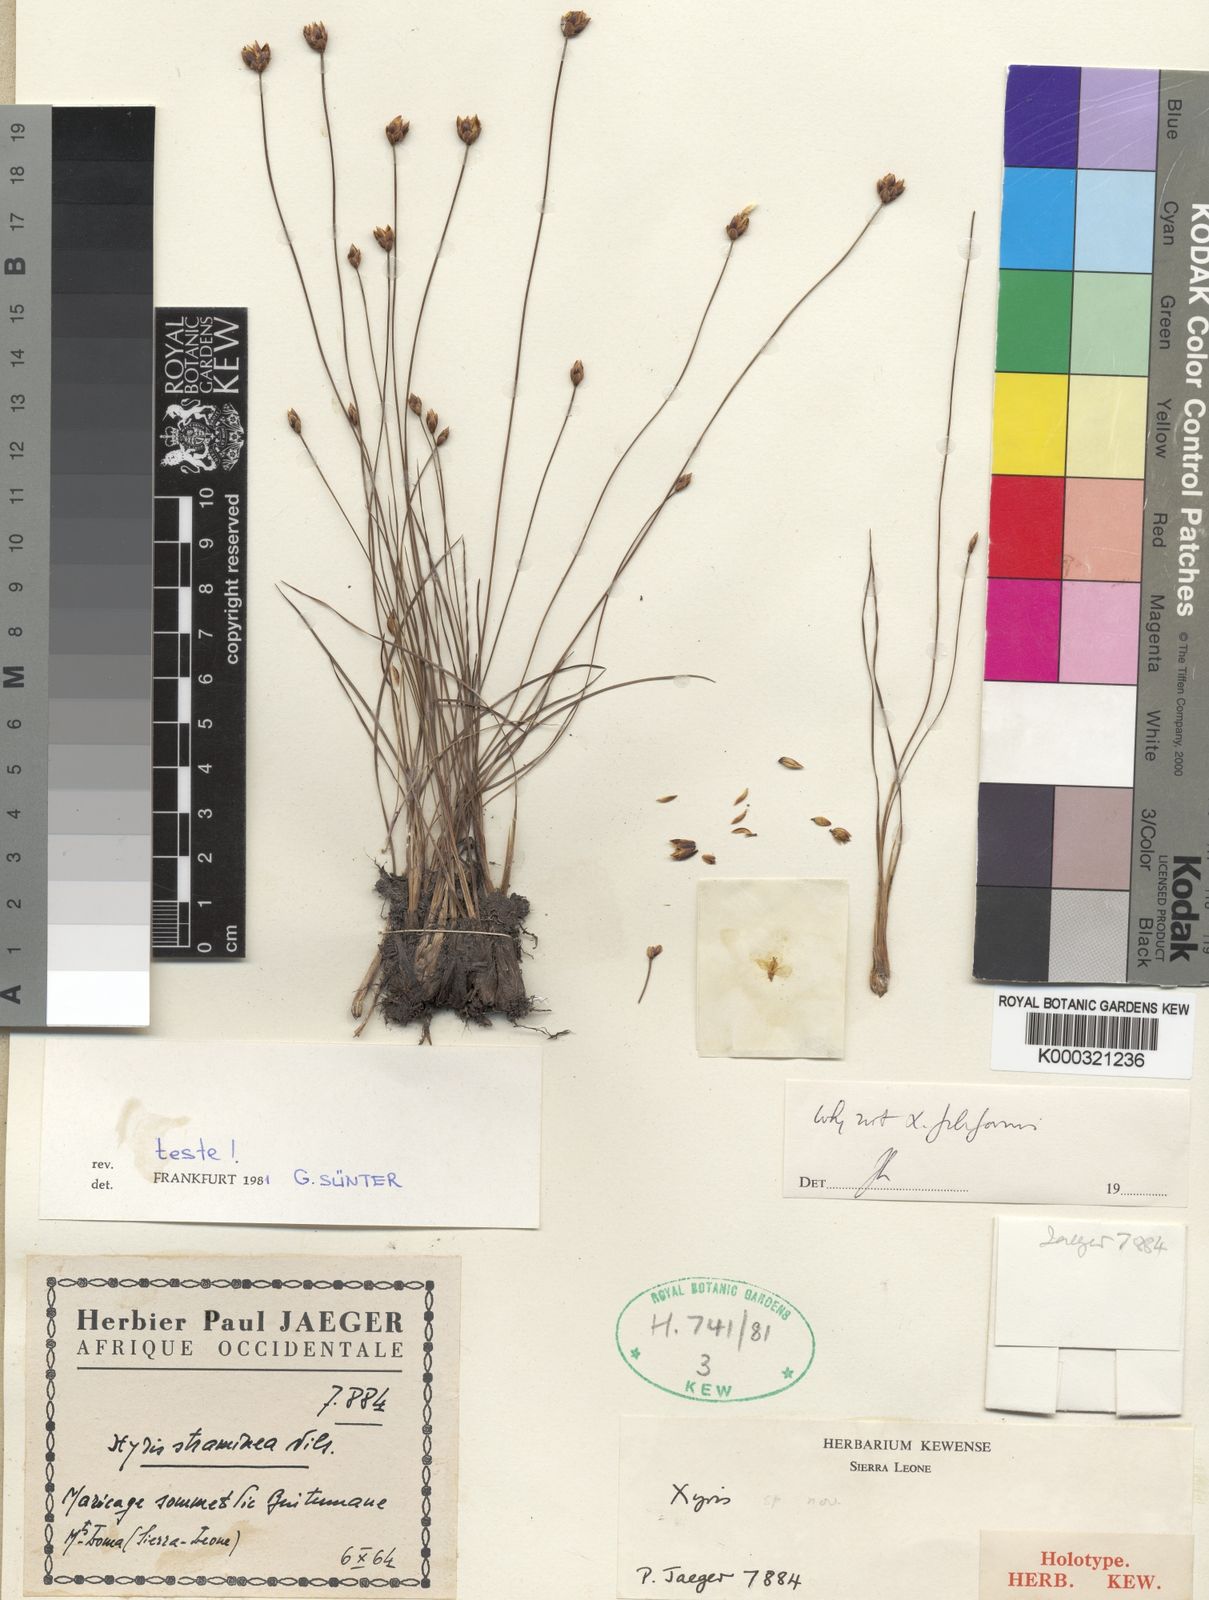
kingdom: Plantae
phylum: Tracheophyta
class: Liliopsida
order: Poales
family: Xyridaceae
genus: Xyris
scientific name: Xyris festucifolia
